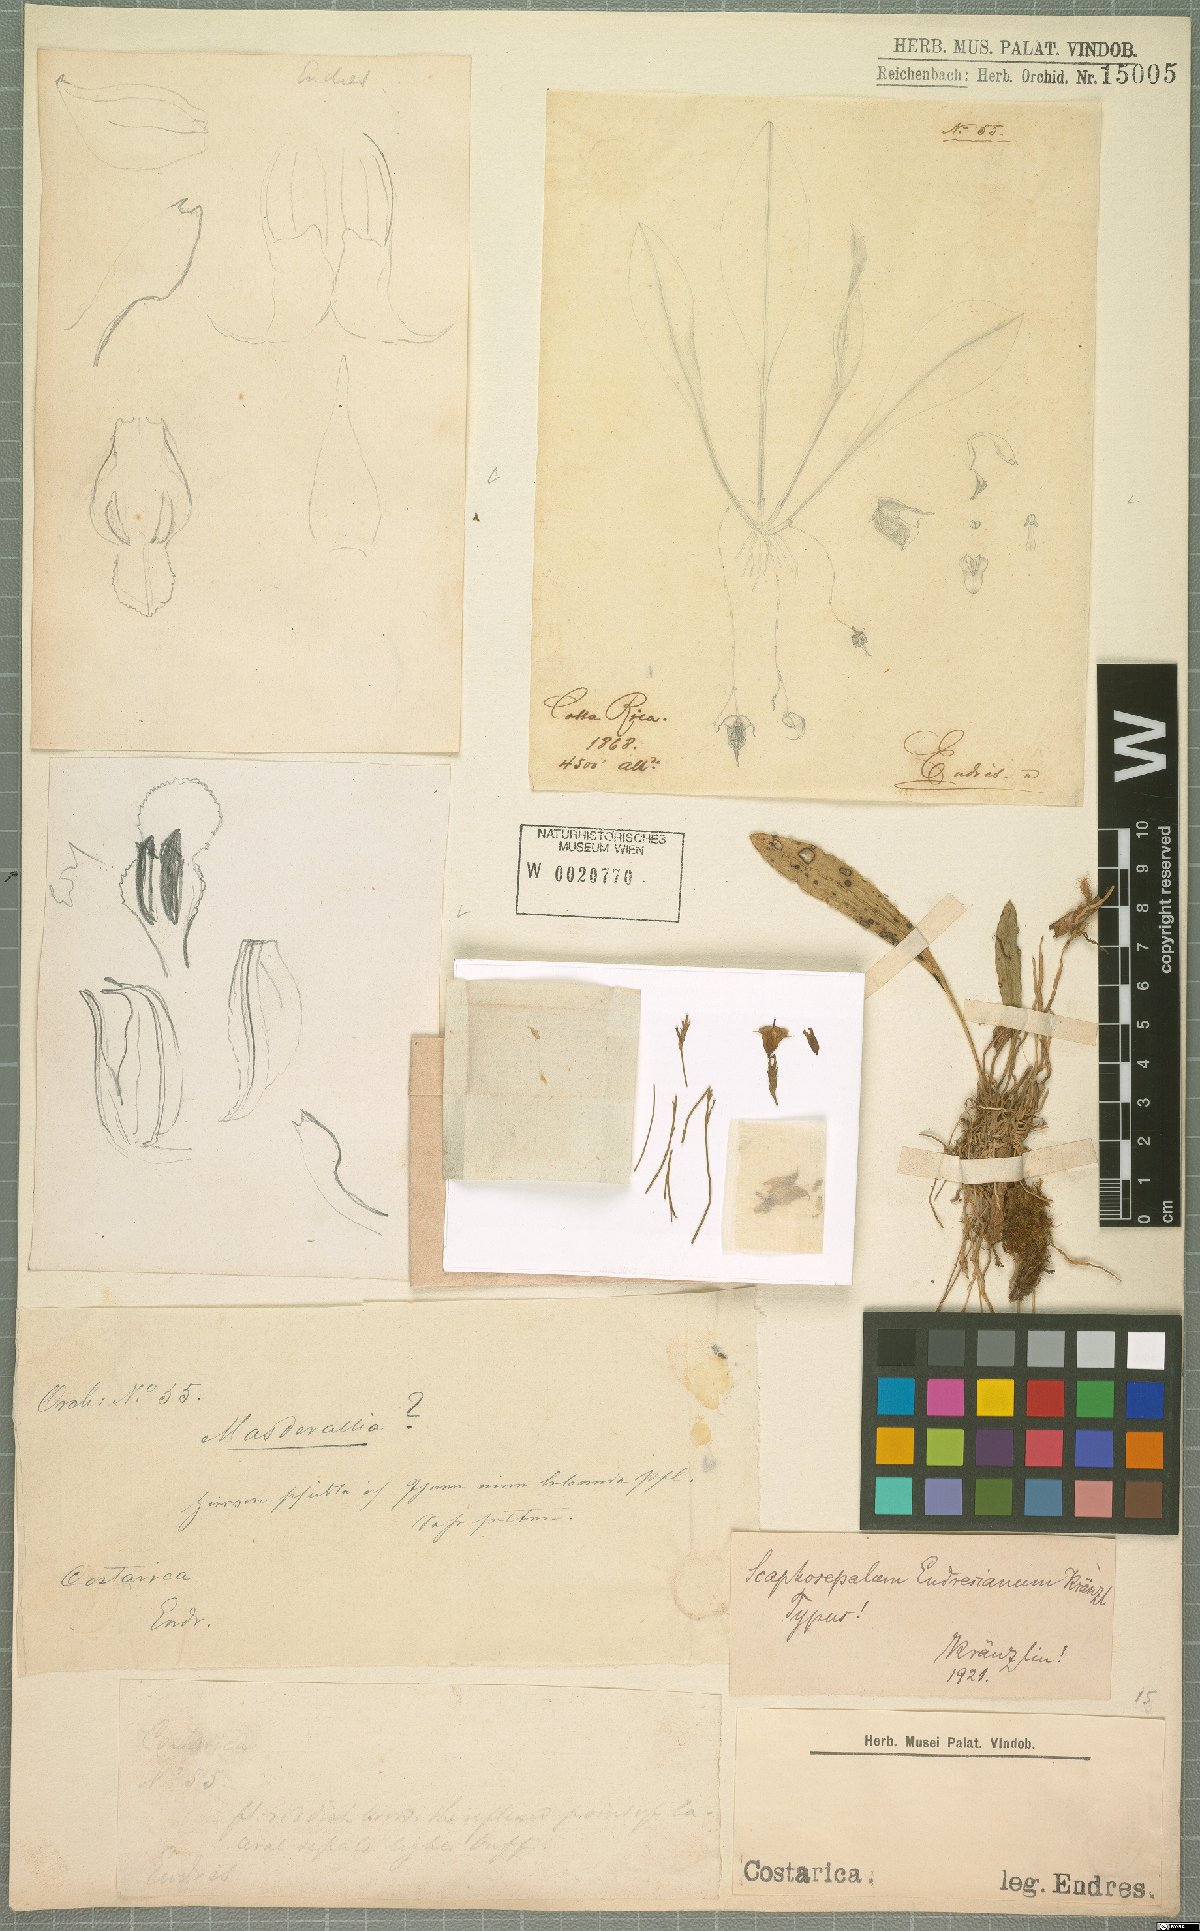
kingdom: Plantae
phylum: Tracheophyta
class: Liliopsida
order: Asparagales
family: Orchidaceae
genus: Scaphosepalum
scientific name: Scaphosepalum anchoriferum
